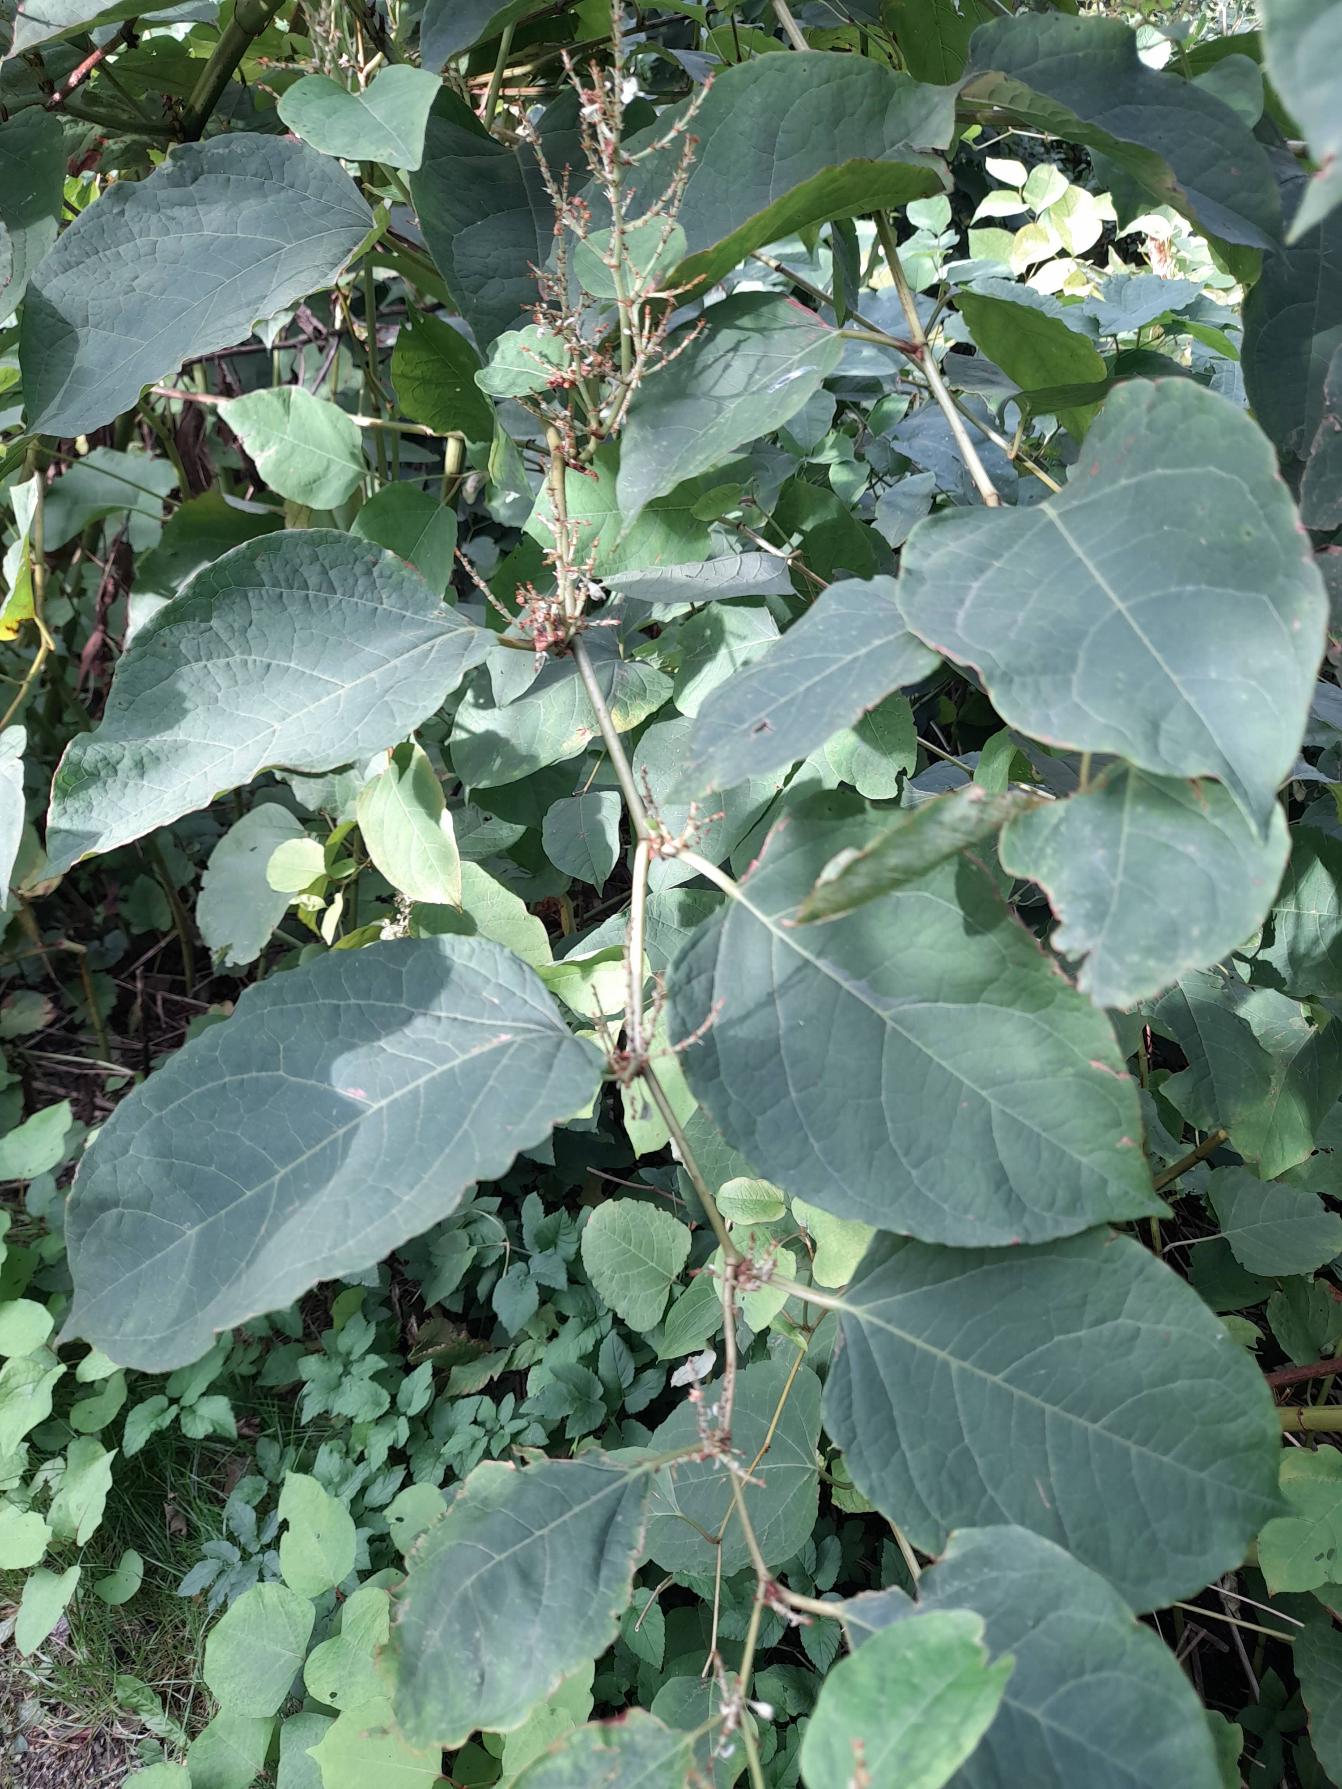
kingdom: Plantae
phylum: Tracheophyta
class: Magnoliopsida
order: Caryophyllales
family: Polygonaceae
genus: Reynoutria
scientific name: Reynoutria japonica
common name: Japan-pileurt
